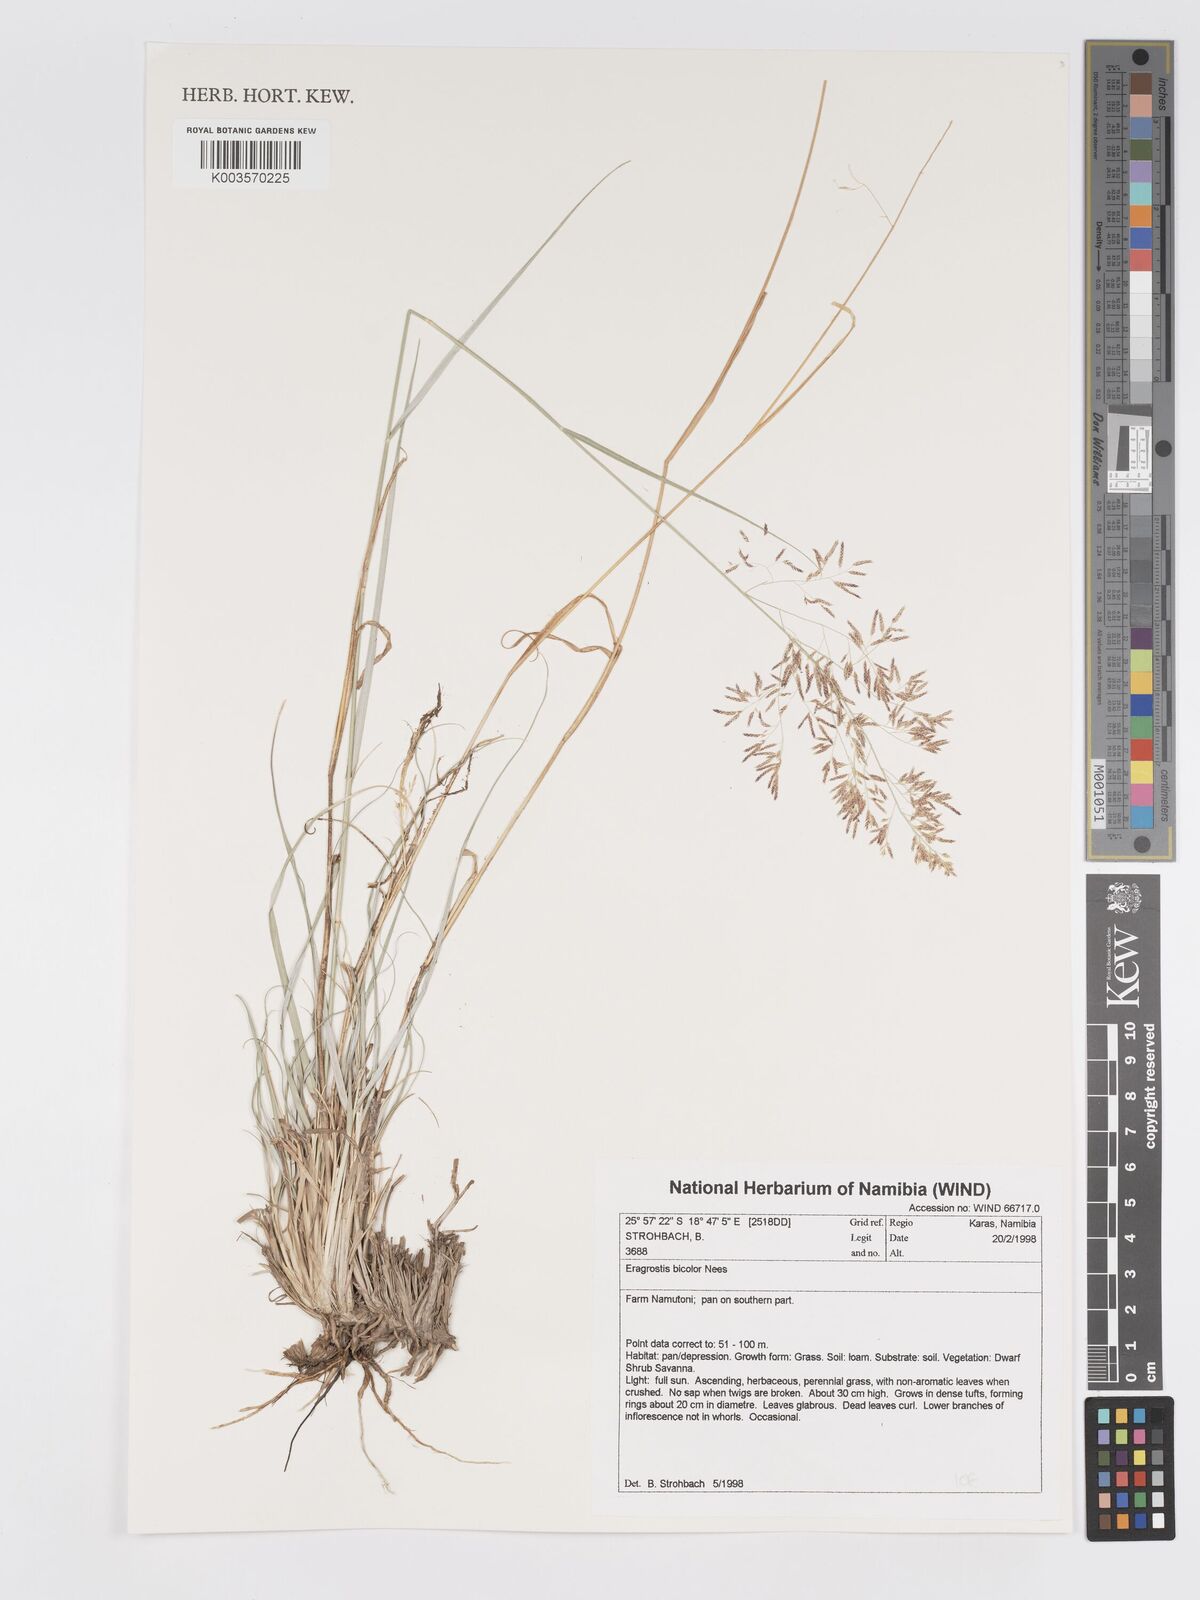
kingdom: Plantae
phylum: Tracheophyta
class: Liliopsida
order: Poales
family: Poaceae
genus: Eragrostis
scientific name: Eragrostis bicolor
